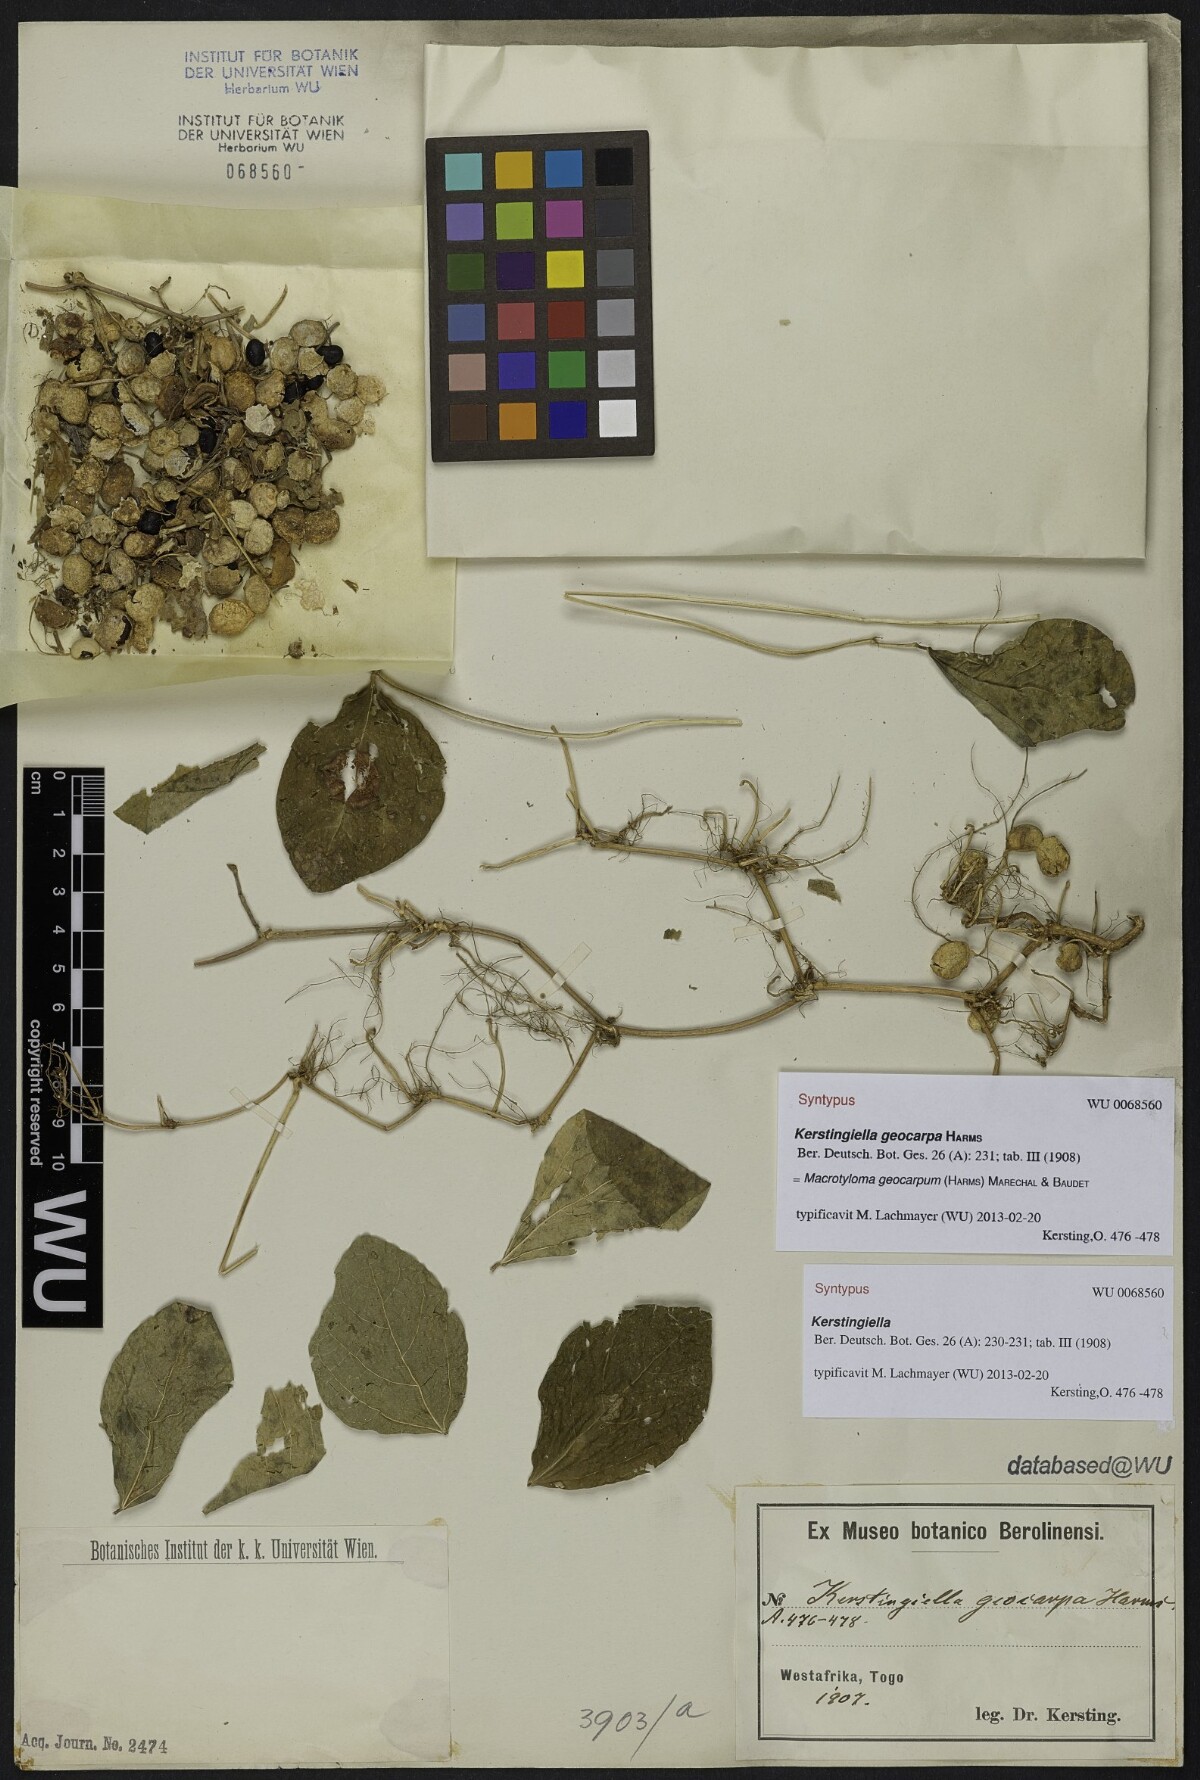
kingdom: Plantae
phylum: Tracheophyta
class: Magnoliopsida
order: Fabales
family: Fabaceae
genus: Macrotyloma
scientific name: Macrotyloma geocarpum
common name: Ground-bean
